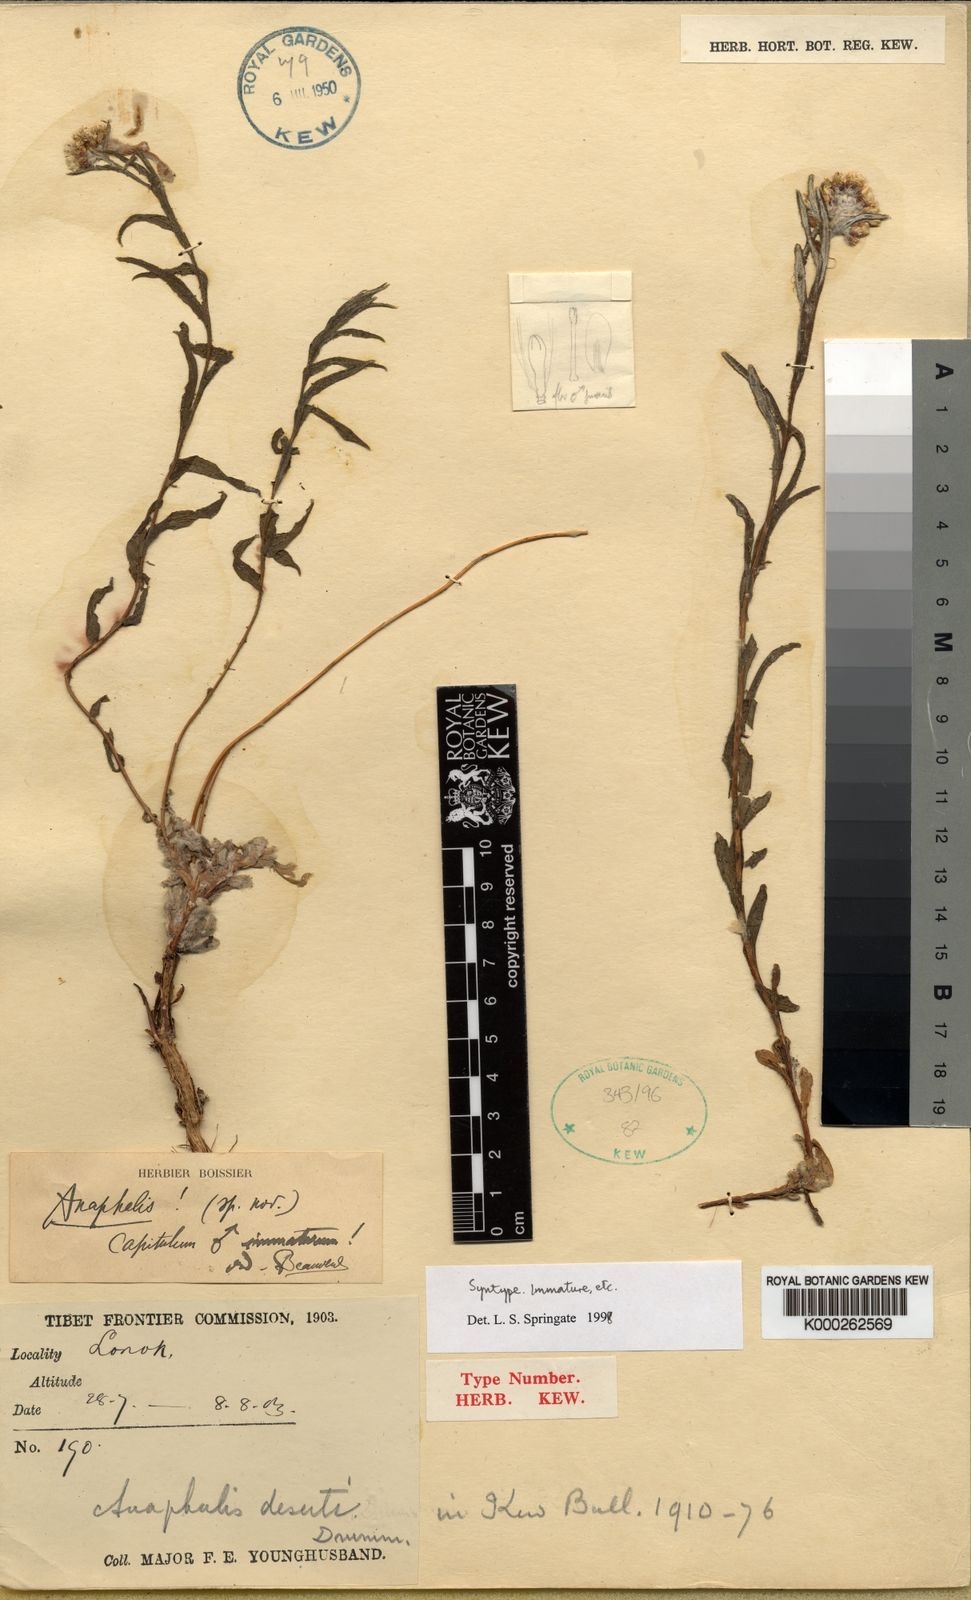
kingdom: Plantae
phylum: Tracheophyta
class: Magnoliopsida
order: Asterales
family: Asteraceae
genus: Anaphalis
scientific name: Anaphalis deserti
